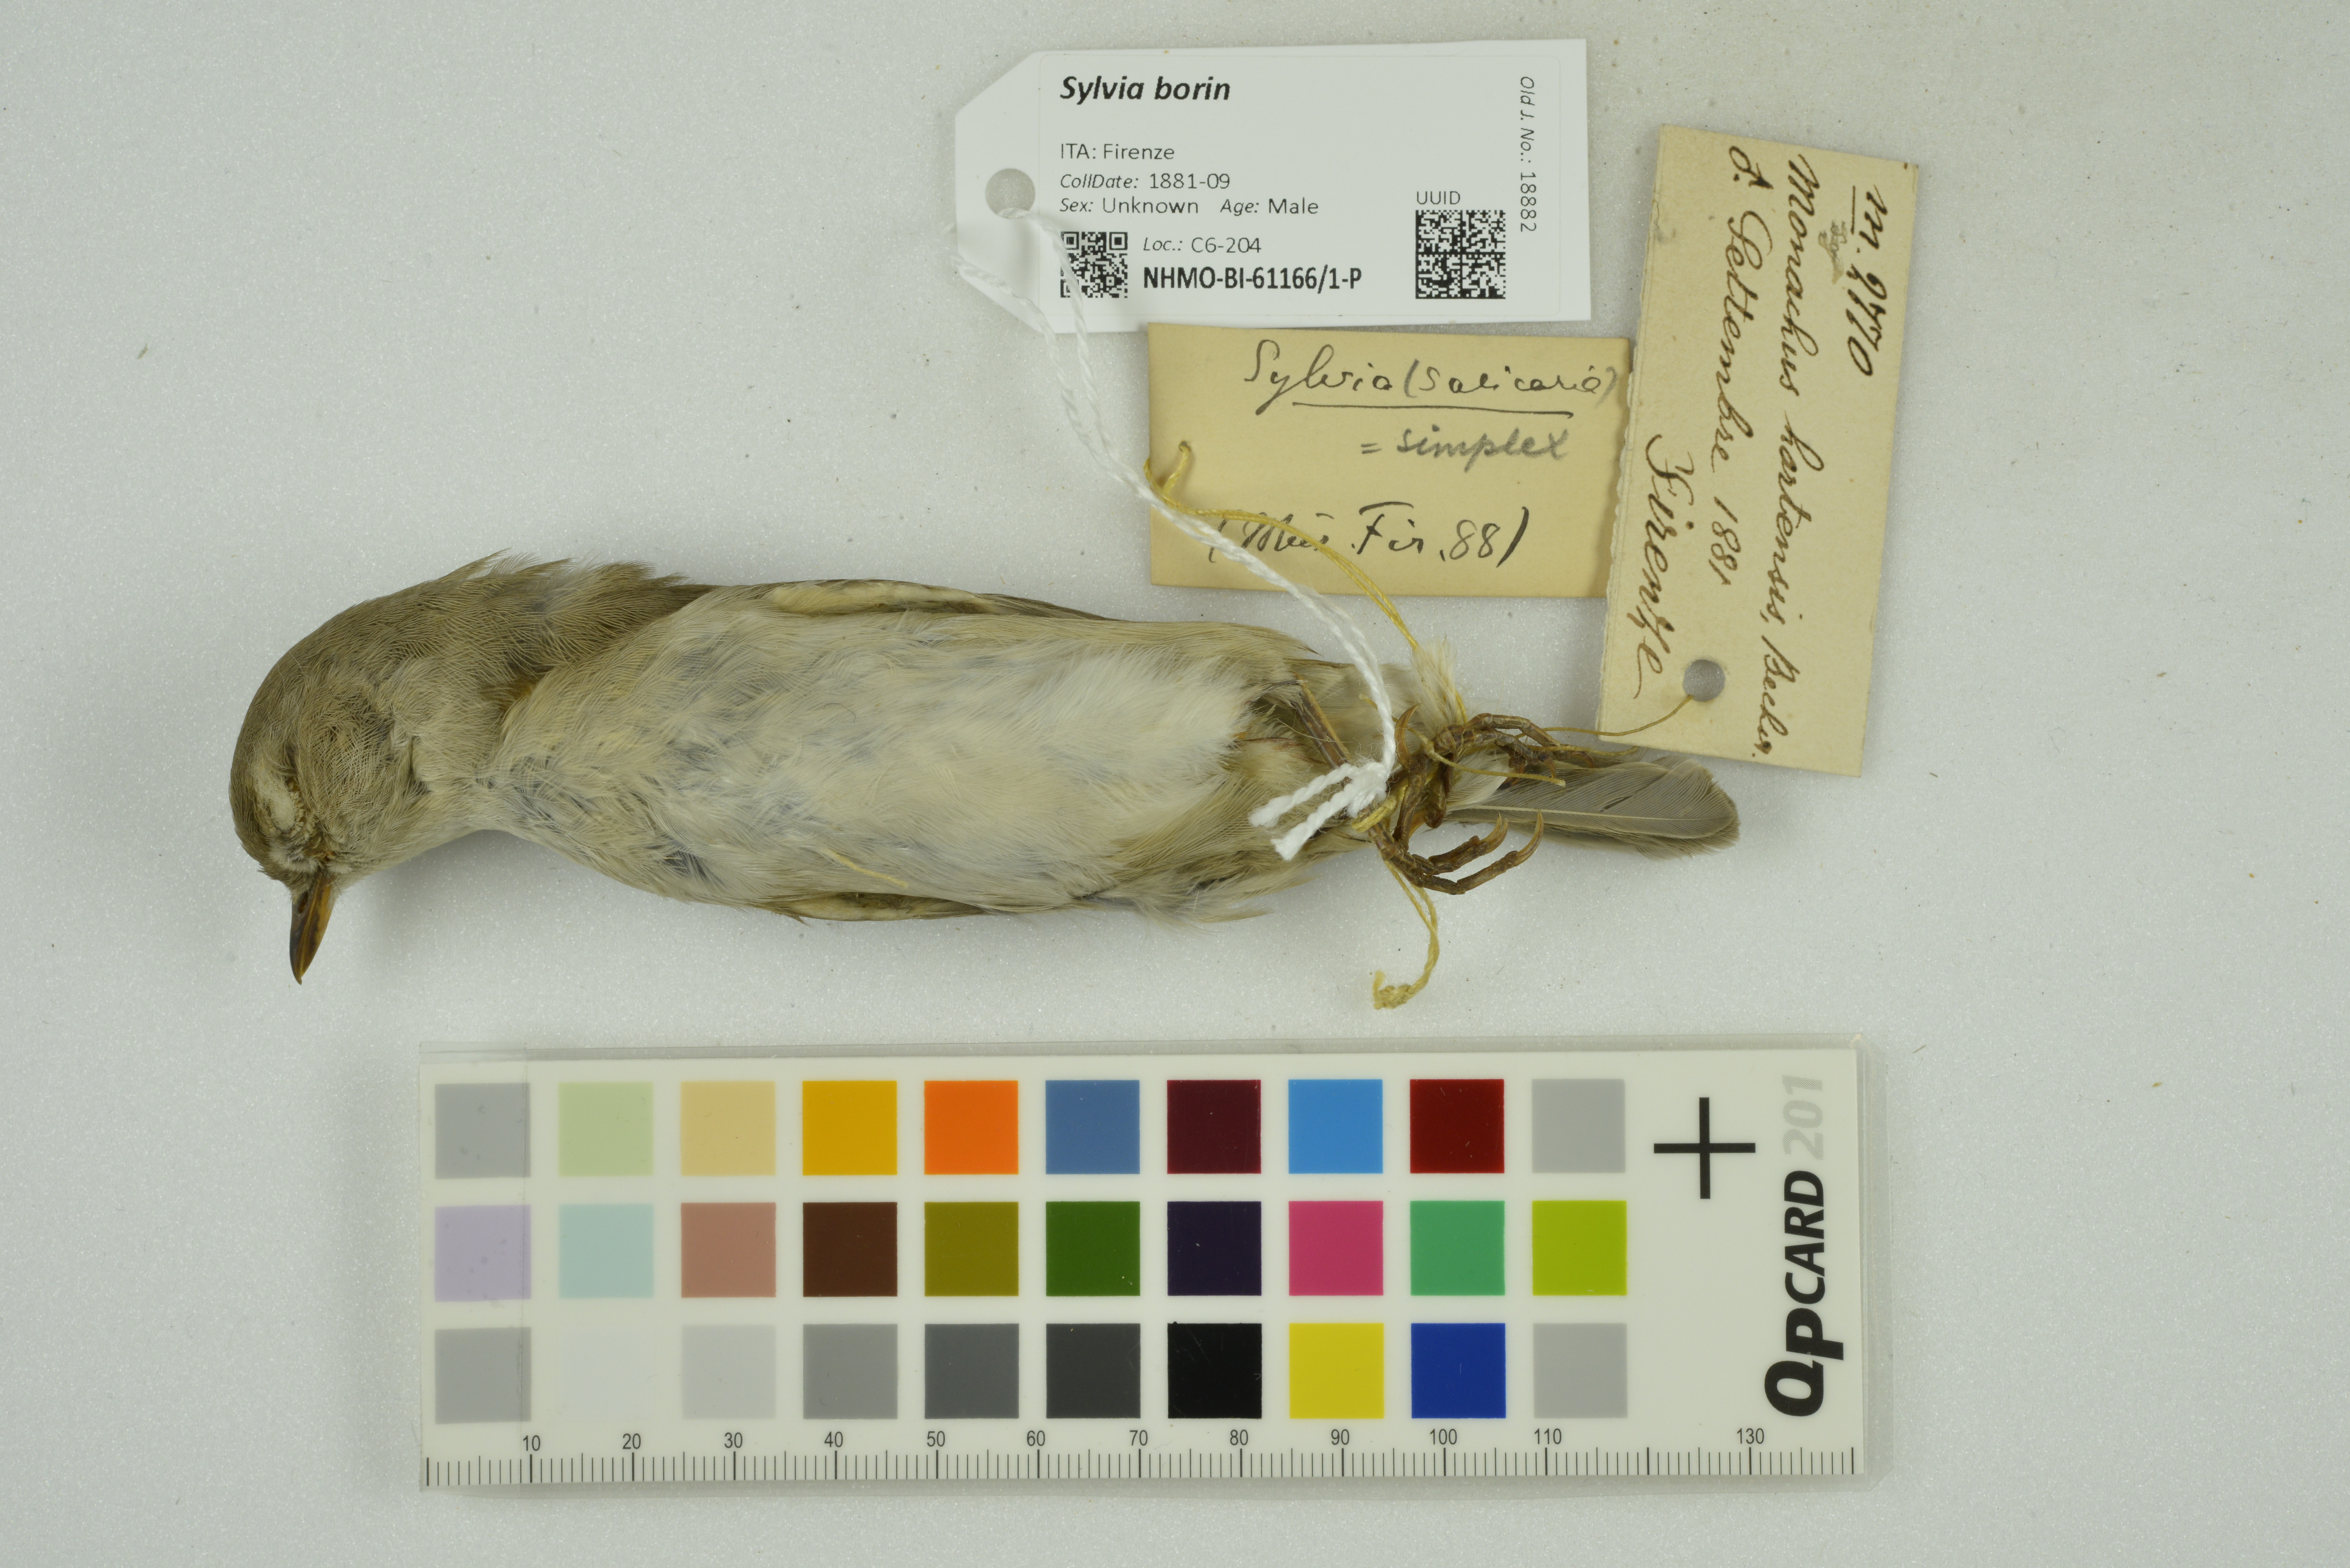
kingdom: Animalia
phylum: Chordata
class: Aves
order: Passeriformes
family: Sylviidae
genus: Sylvia
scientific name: Sylvia borin
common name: Garden warbler
